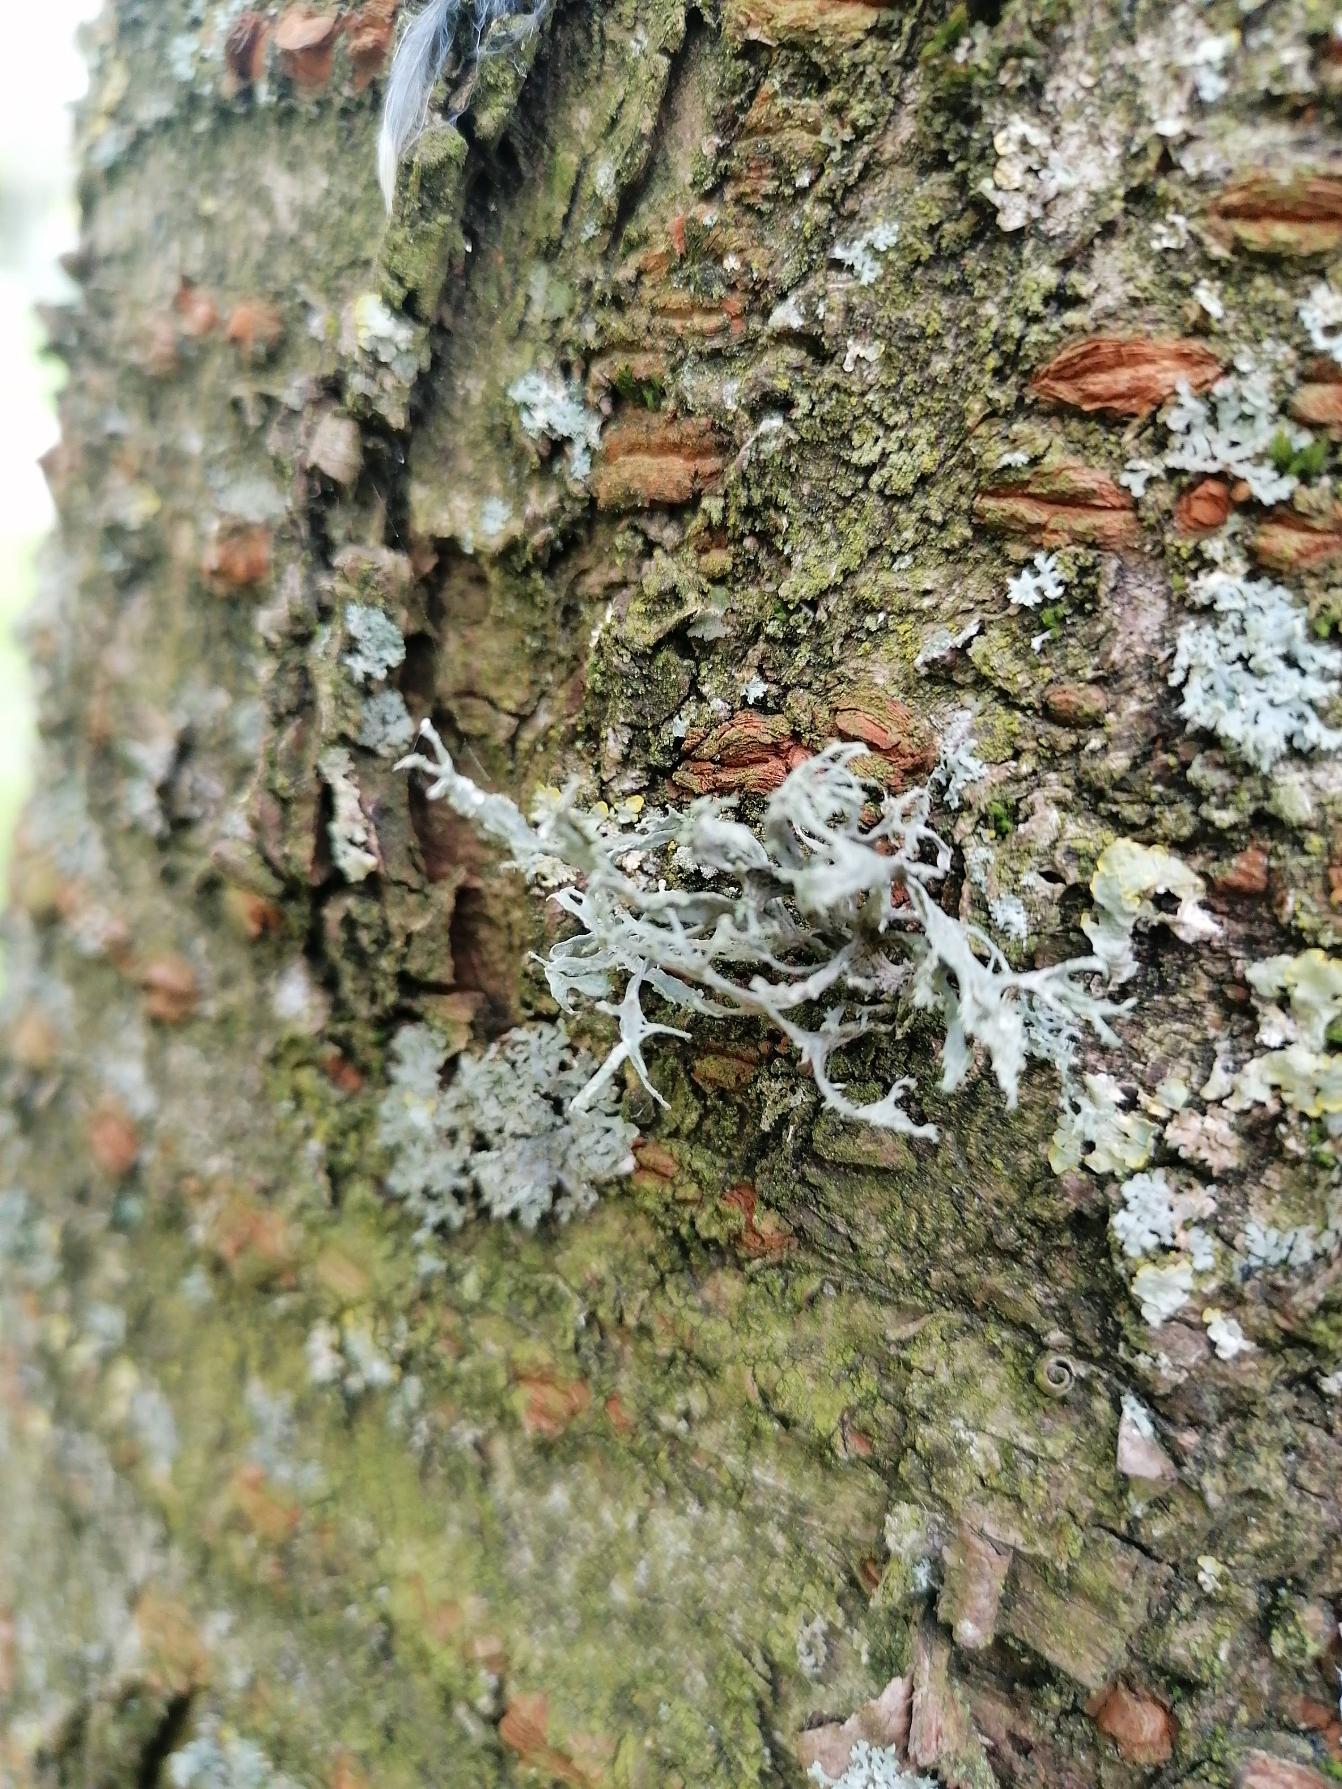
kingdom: Fungi
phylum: Ascomycota
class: Lecanoromycetes
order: Lecanorales
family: Ramalinaceae
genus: Ramalina
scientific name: Ramalina farinacea
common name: Melet grenlav
